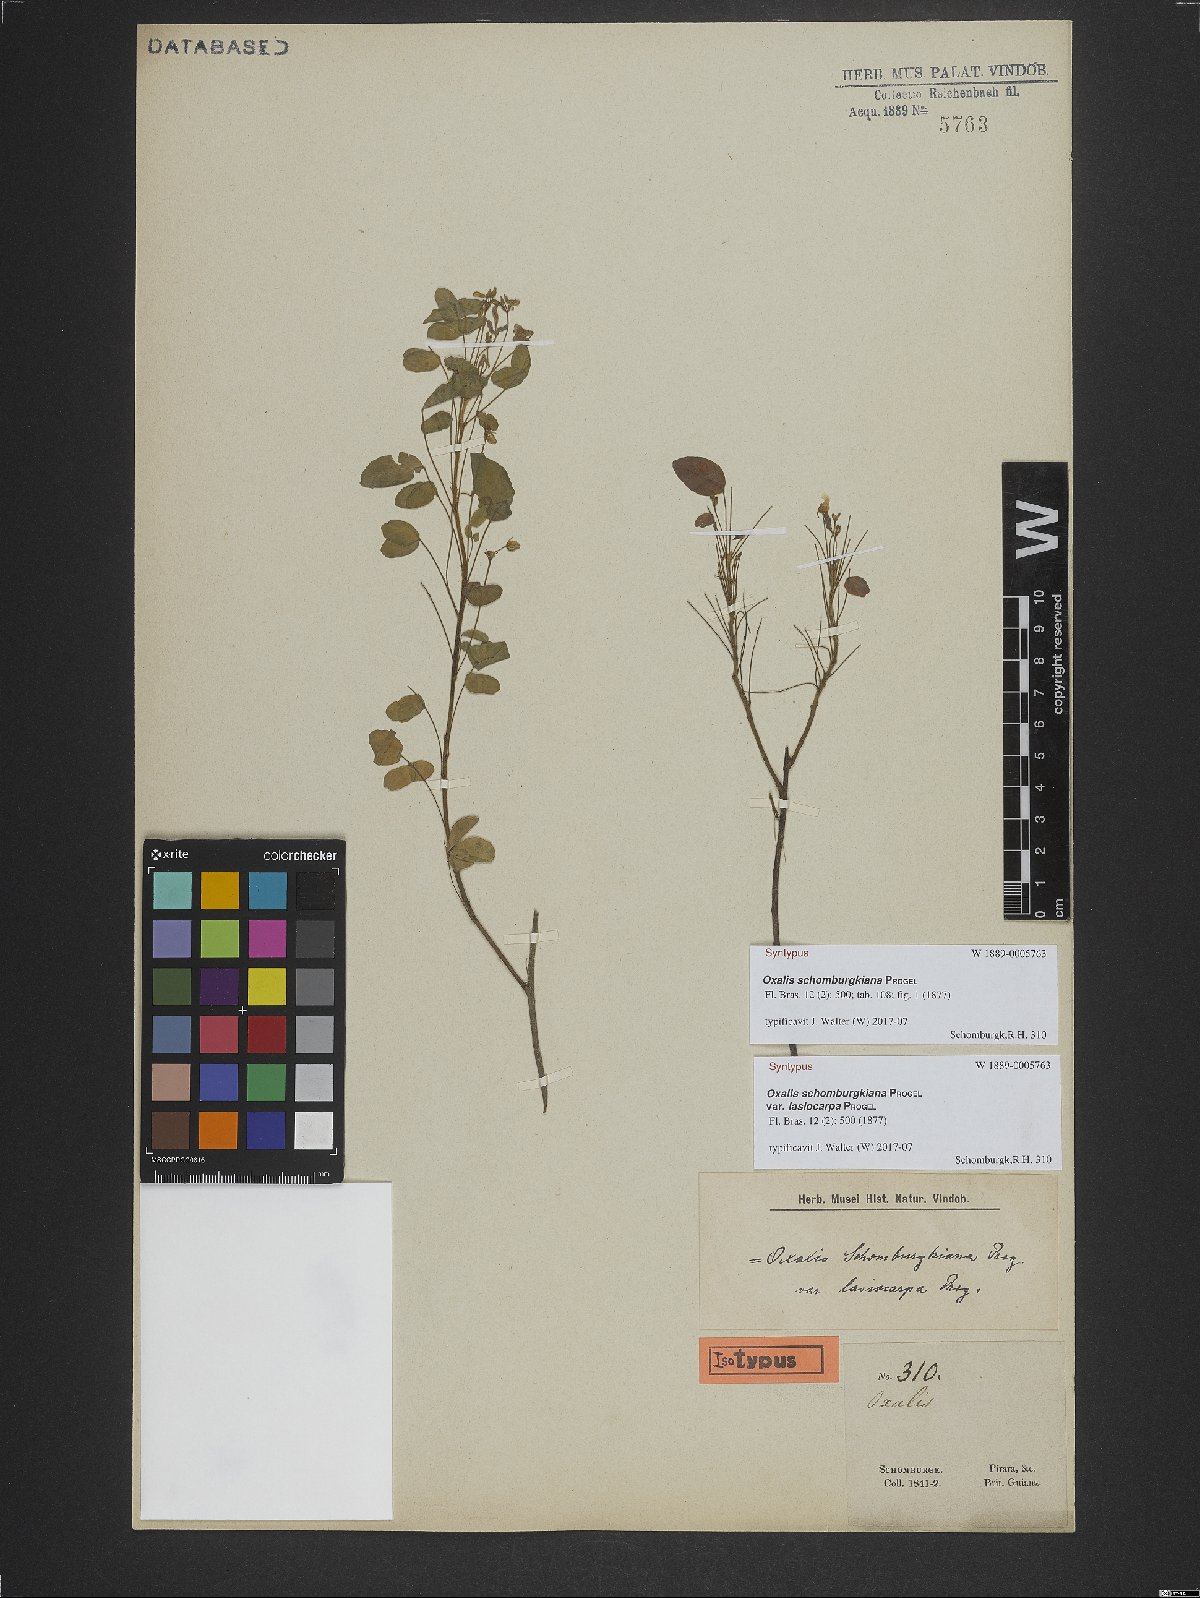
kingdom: Plantae
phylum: Tracheophyta
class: Magnoliopsida
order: Oxalidales
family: Oxalidaceae
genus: Oxalis
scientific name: Oxalis frutescens
